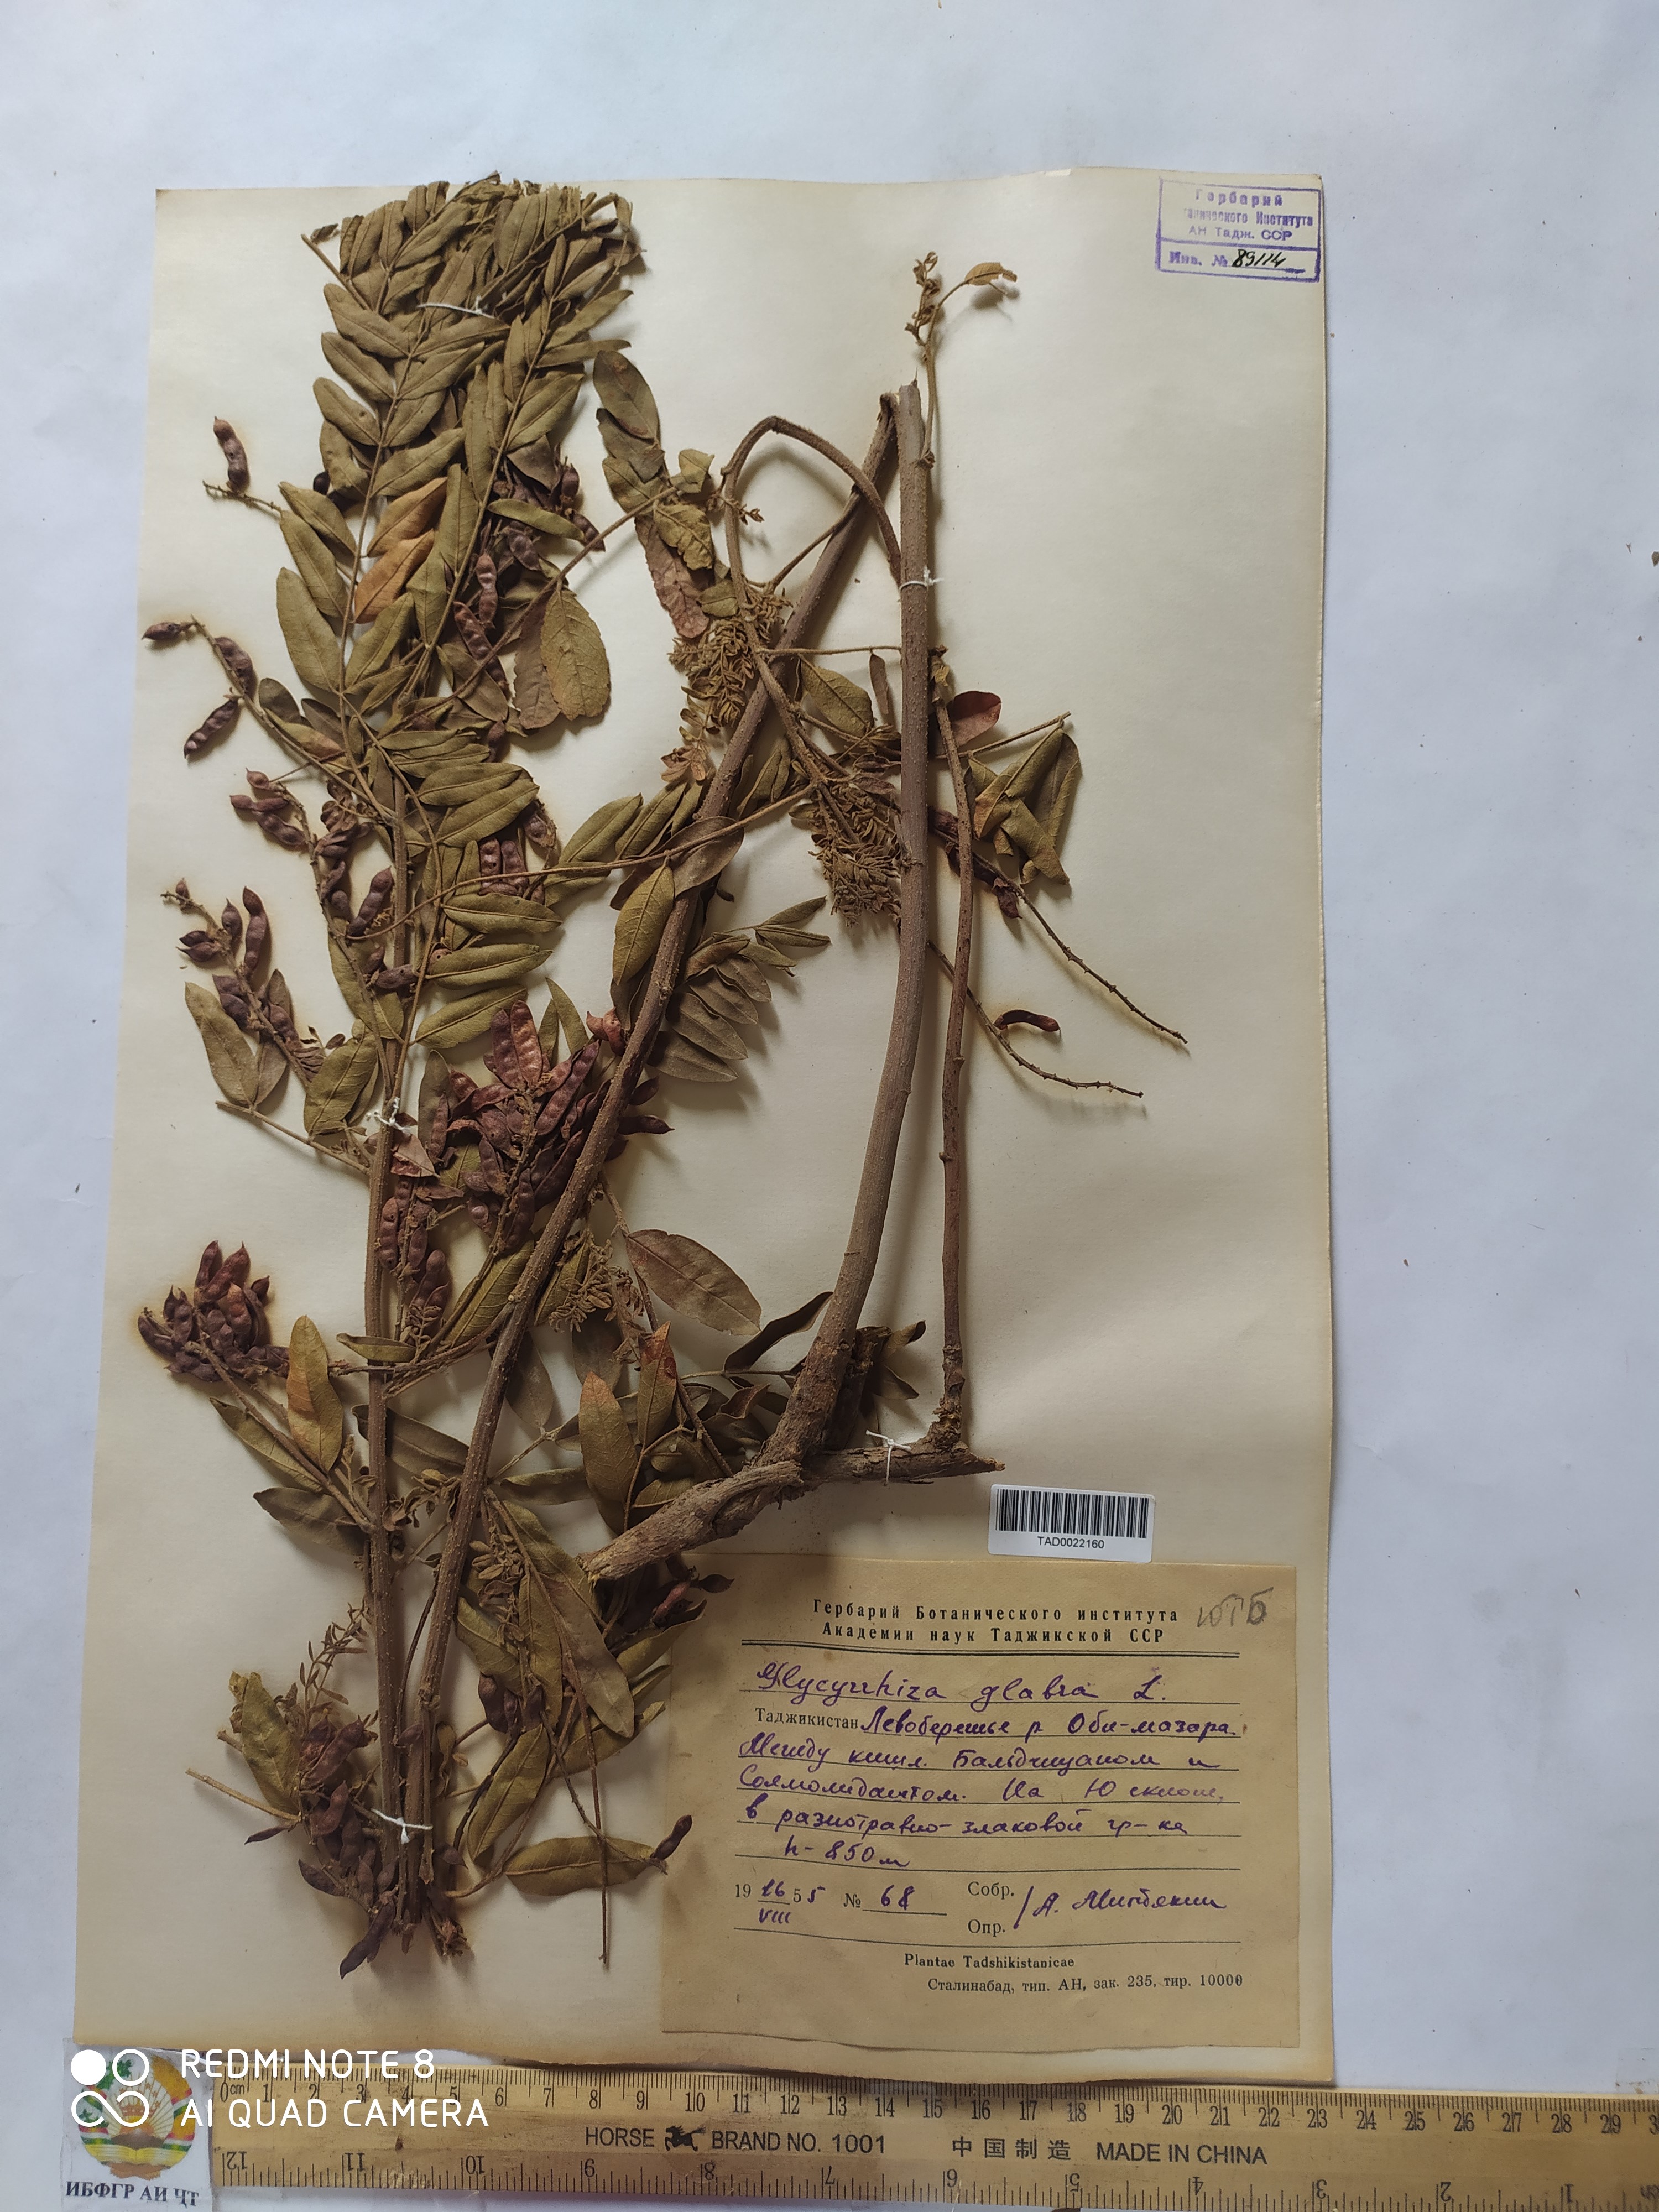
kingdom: Plantae
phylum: Tracheophyta
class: Magnoliopsida
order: Fabales
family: Fabaceae
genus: Glycyrrhiza
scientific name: Glycyrrhiza glabra
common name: Liquorice
